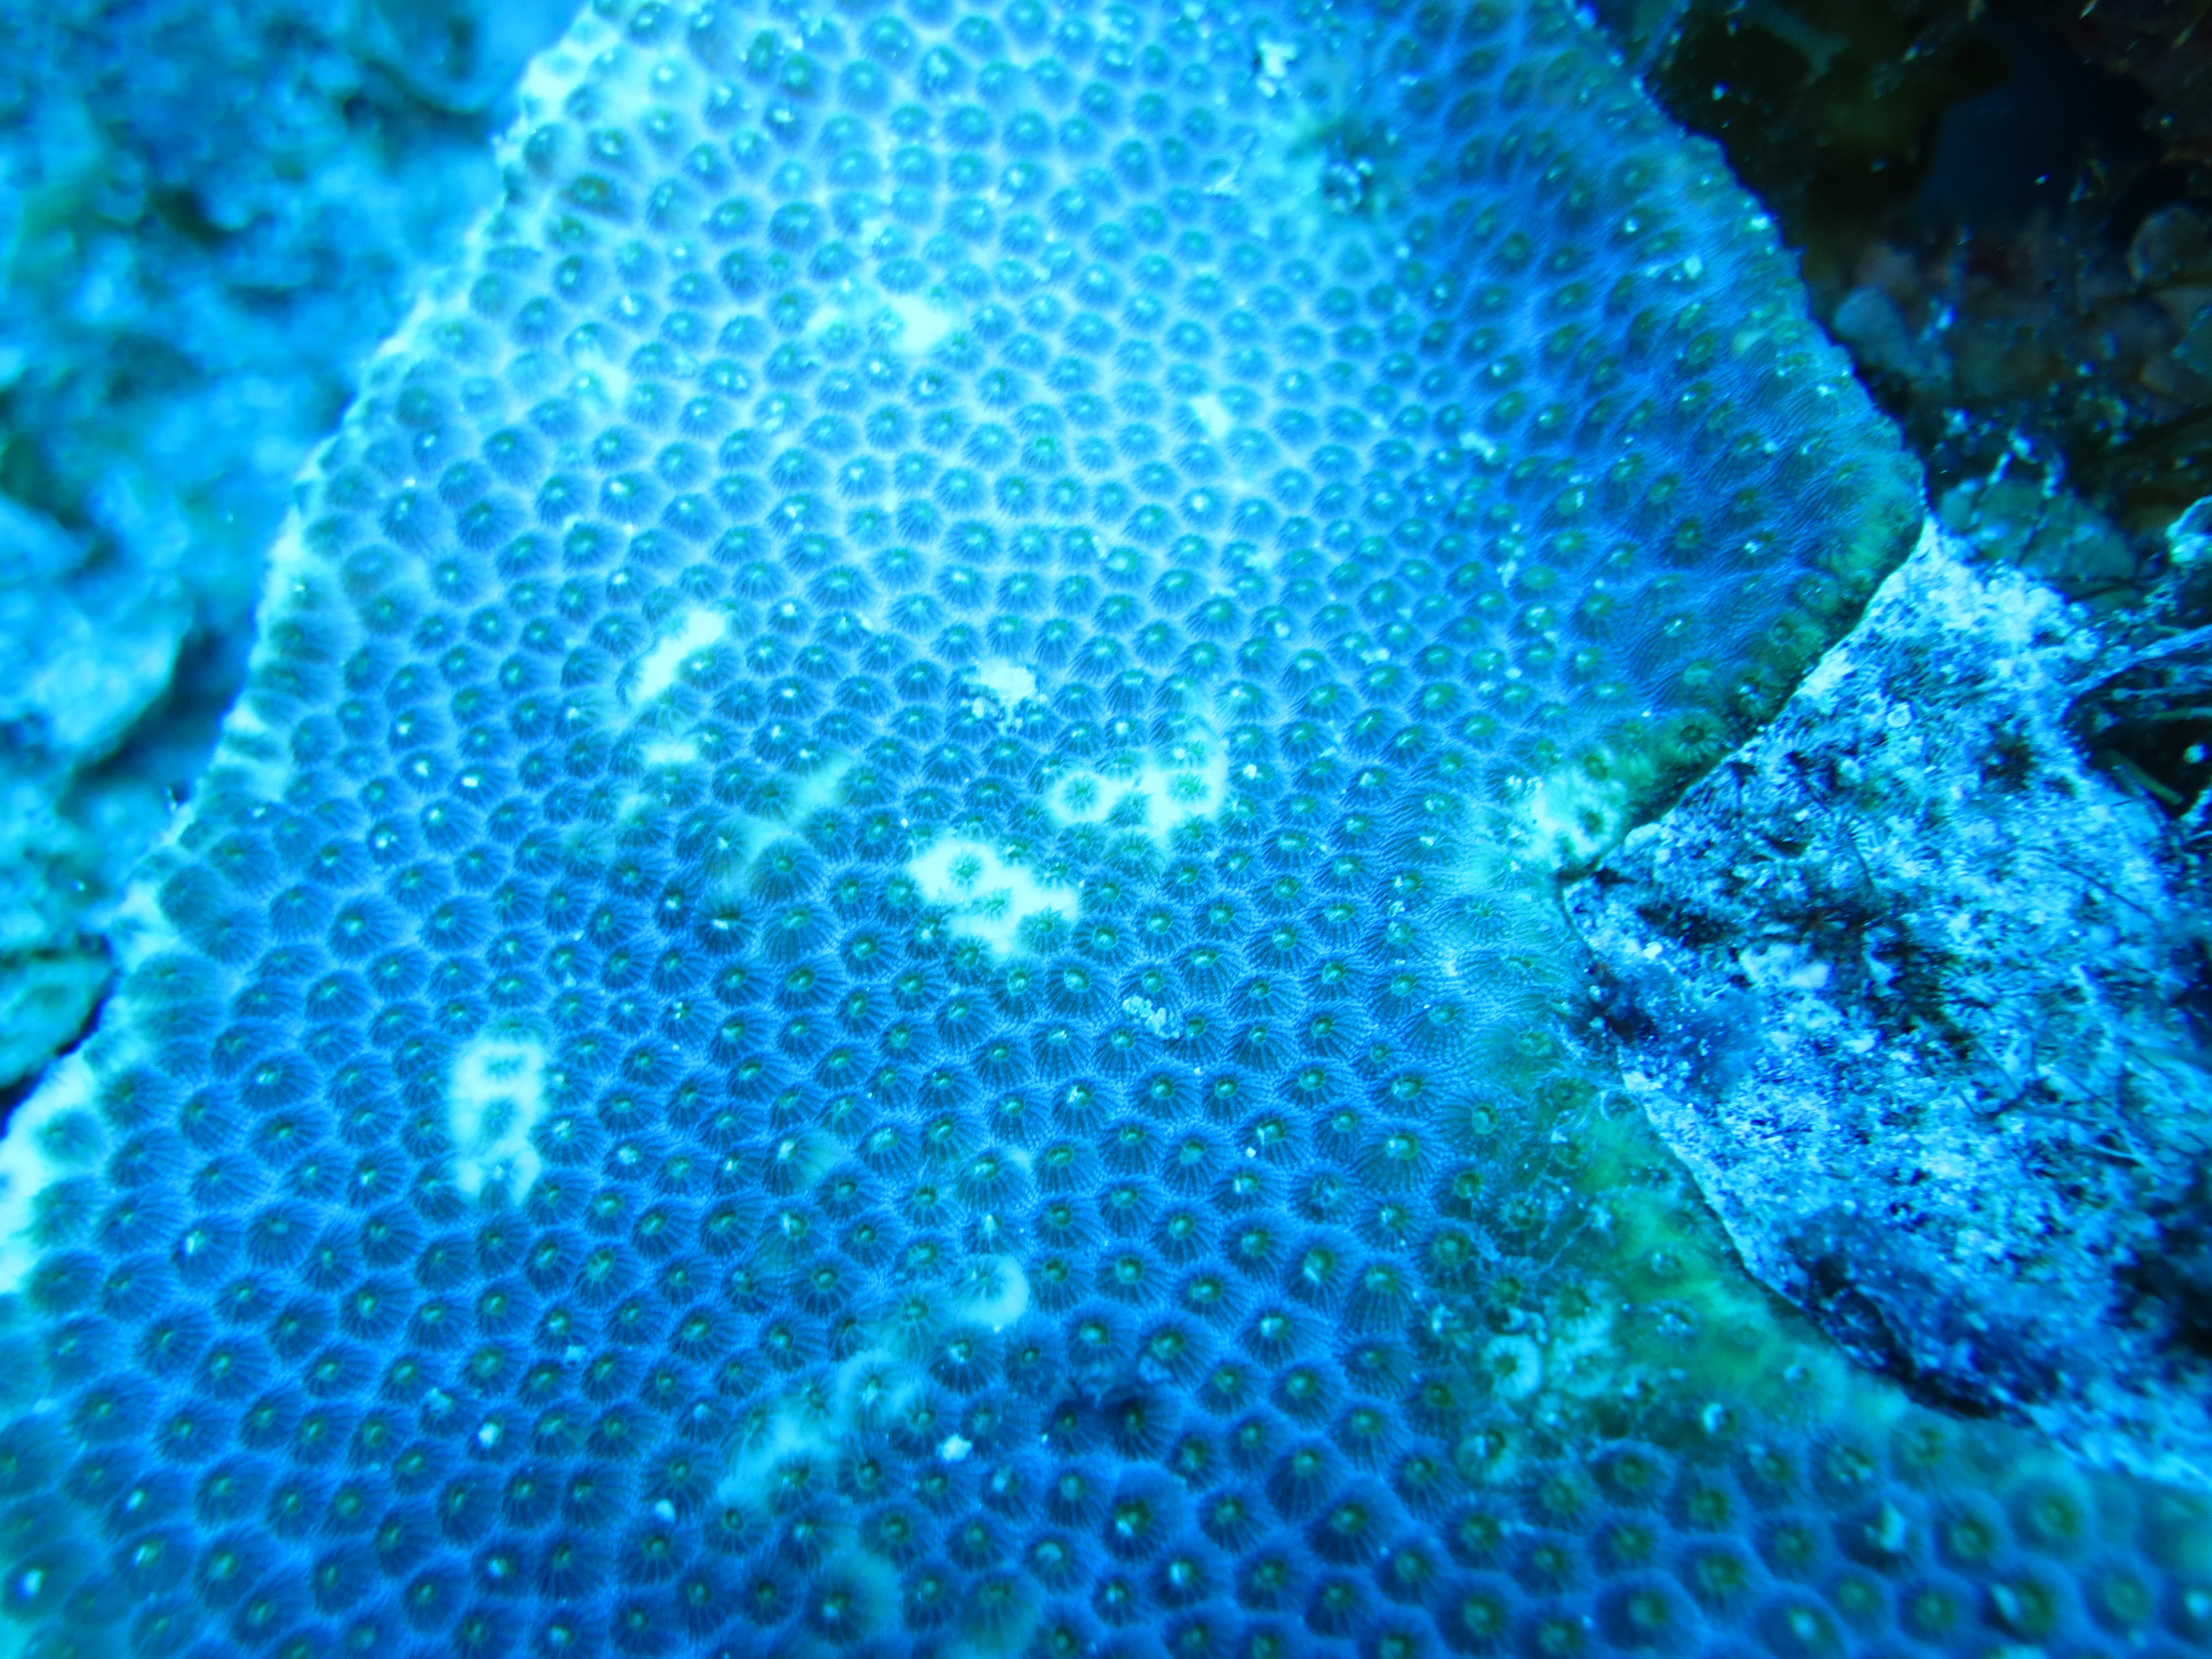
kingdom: Animalia
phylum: Cnidaria
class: Anthozoa
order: Scleractinia
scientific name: Scleractinia
